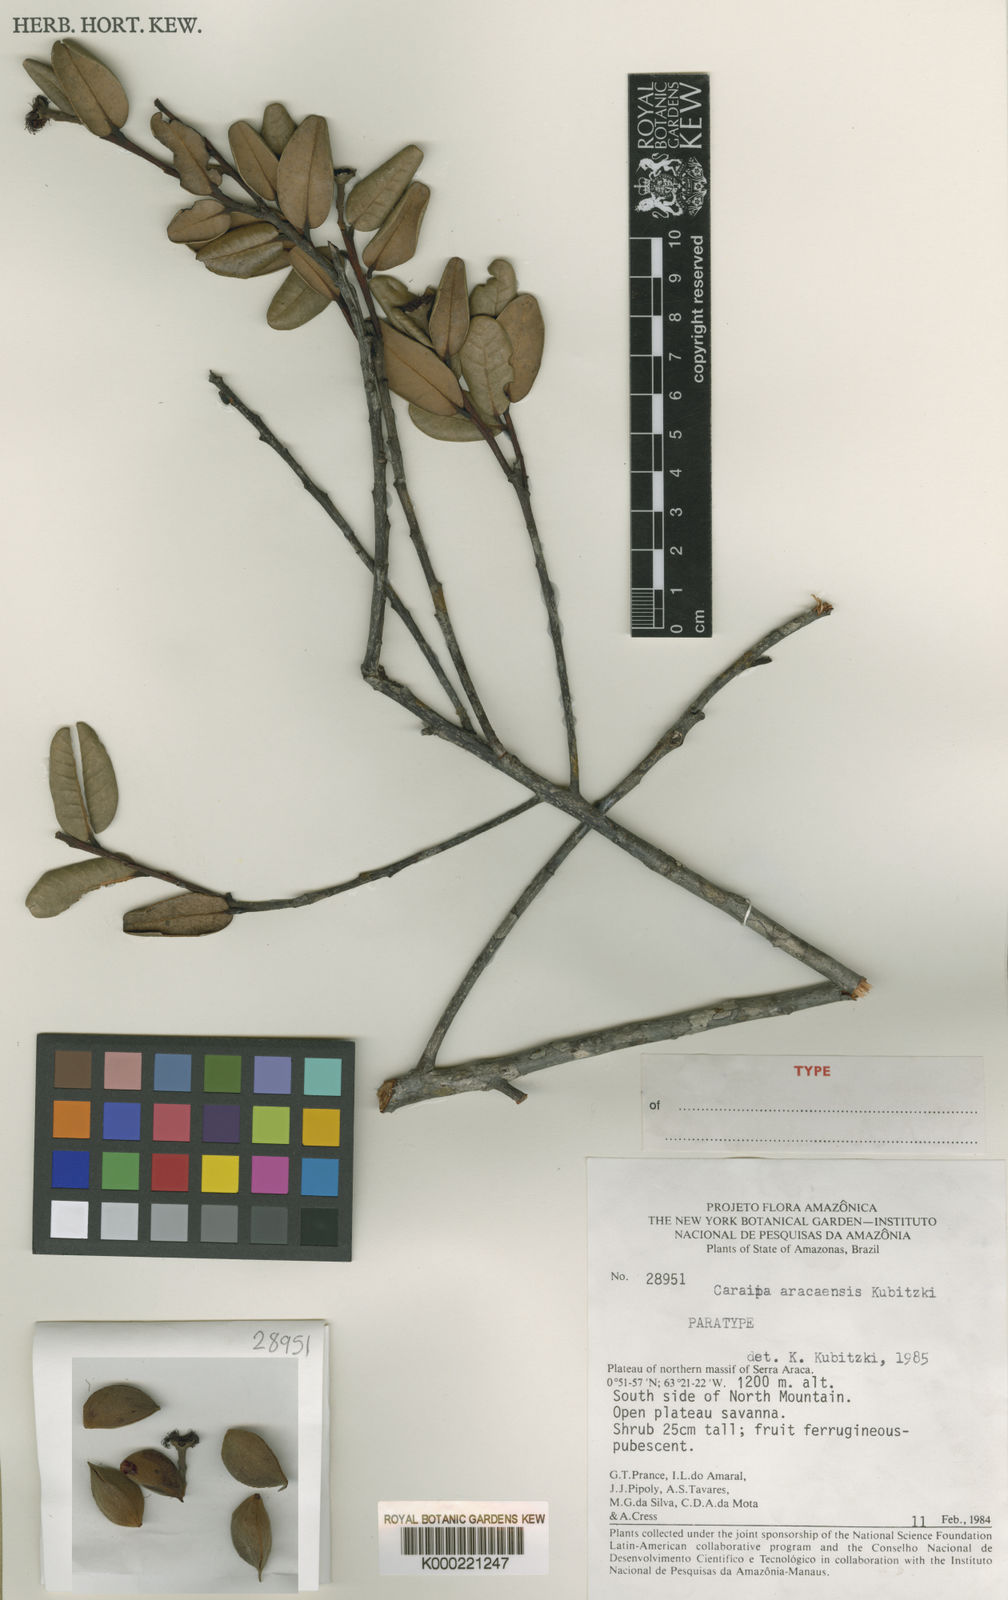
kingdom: Plantae
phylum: Tracheophyta
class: Magnoliopsida
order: Malpighiales
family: Calophyllaceae
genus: Caraipa
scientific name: Caraipa aracaensis
